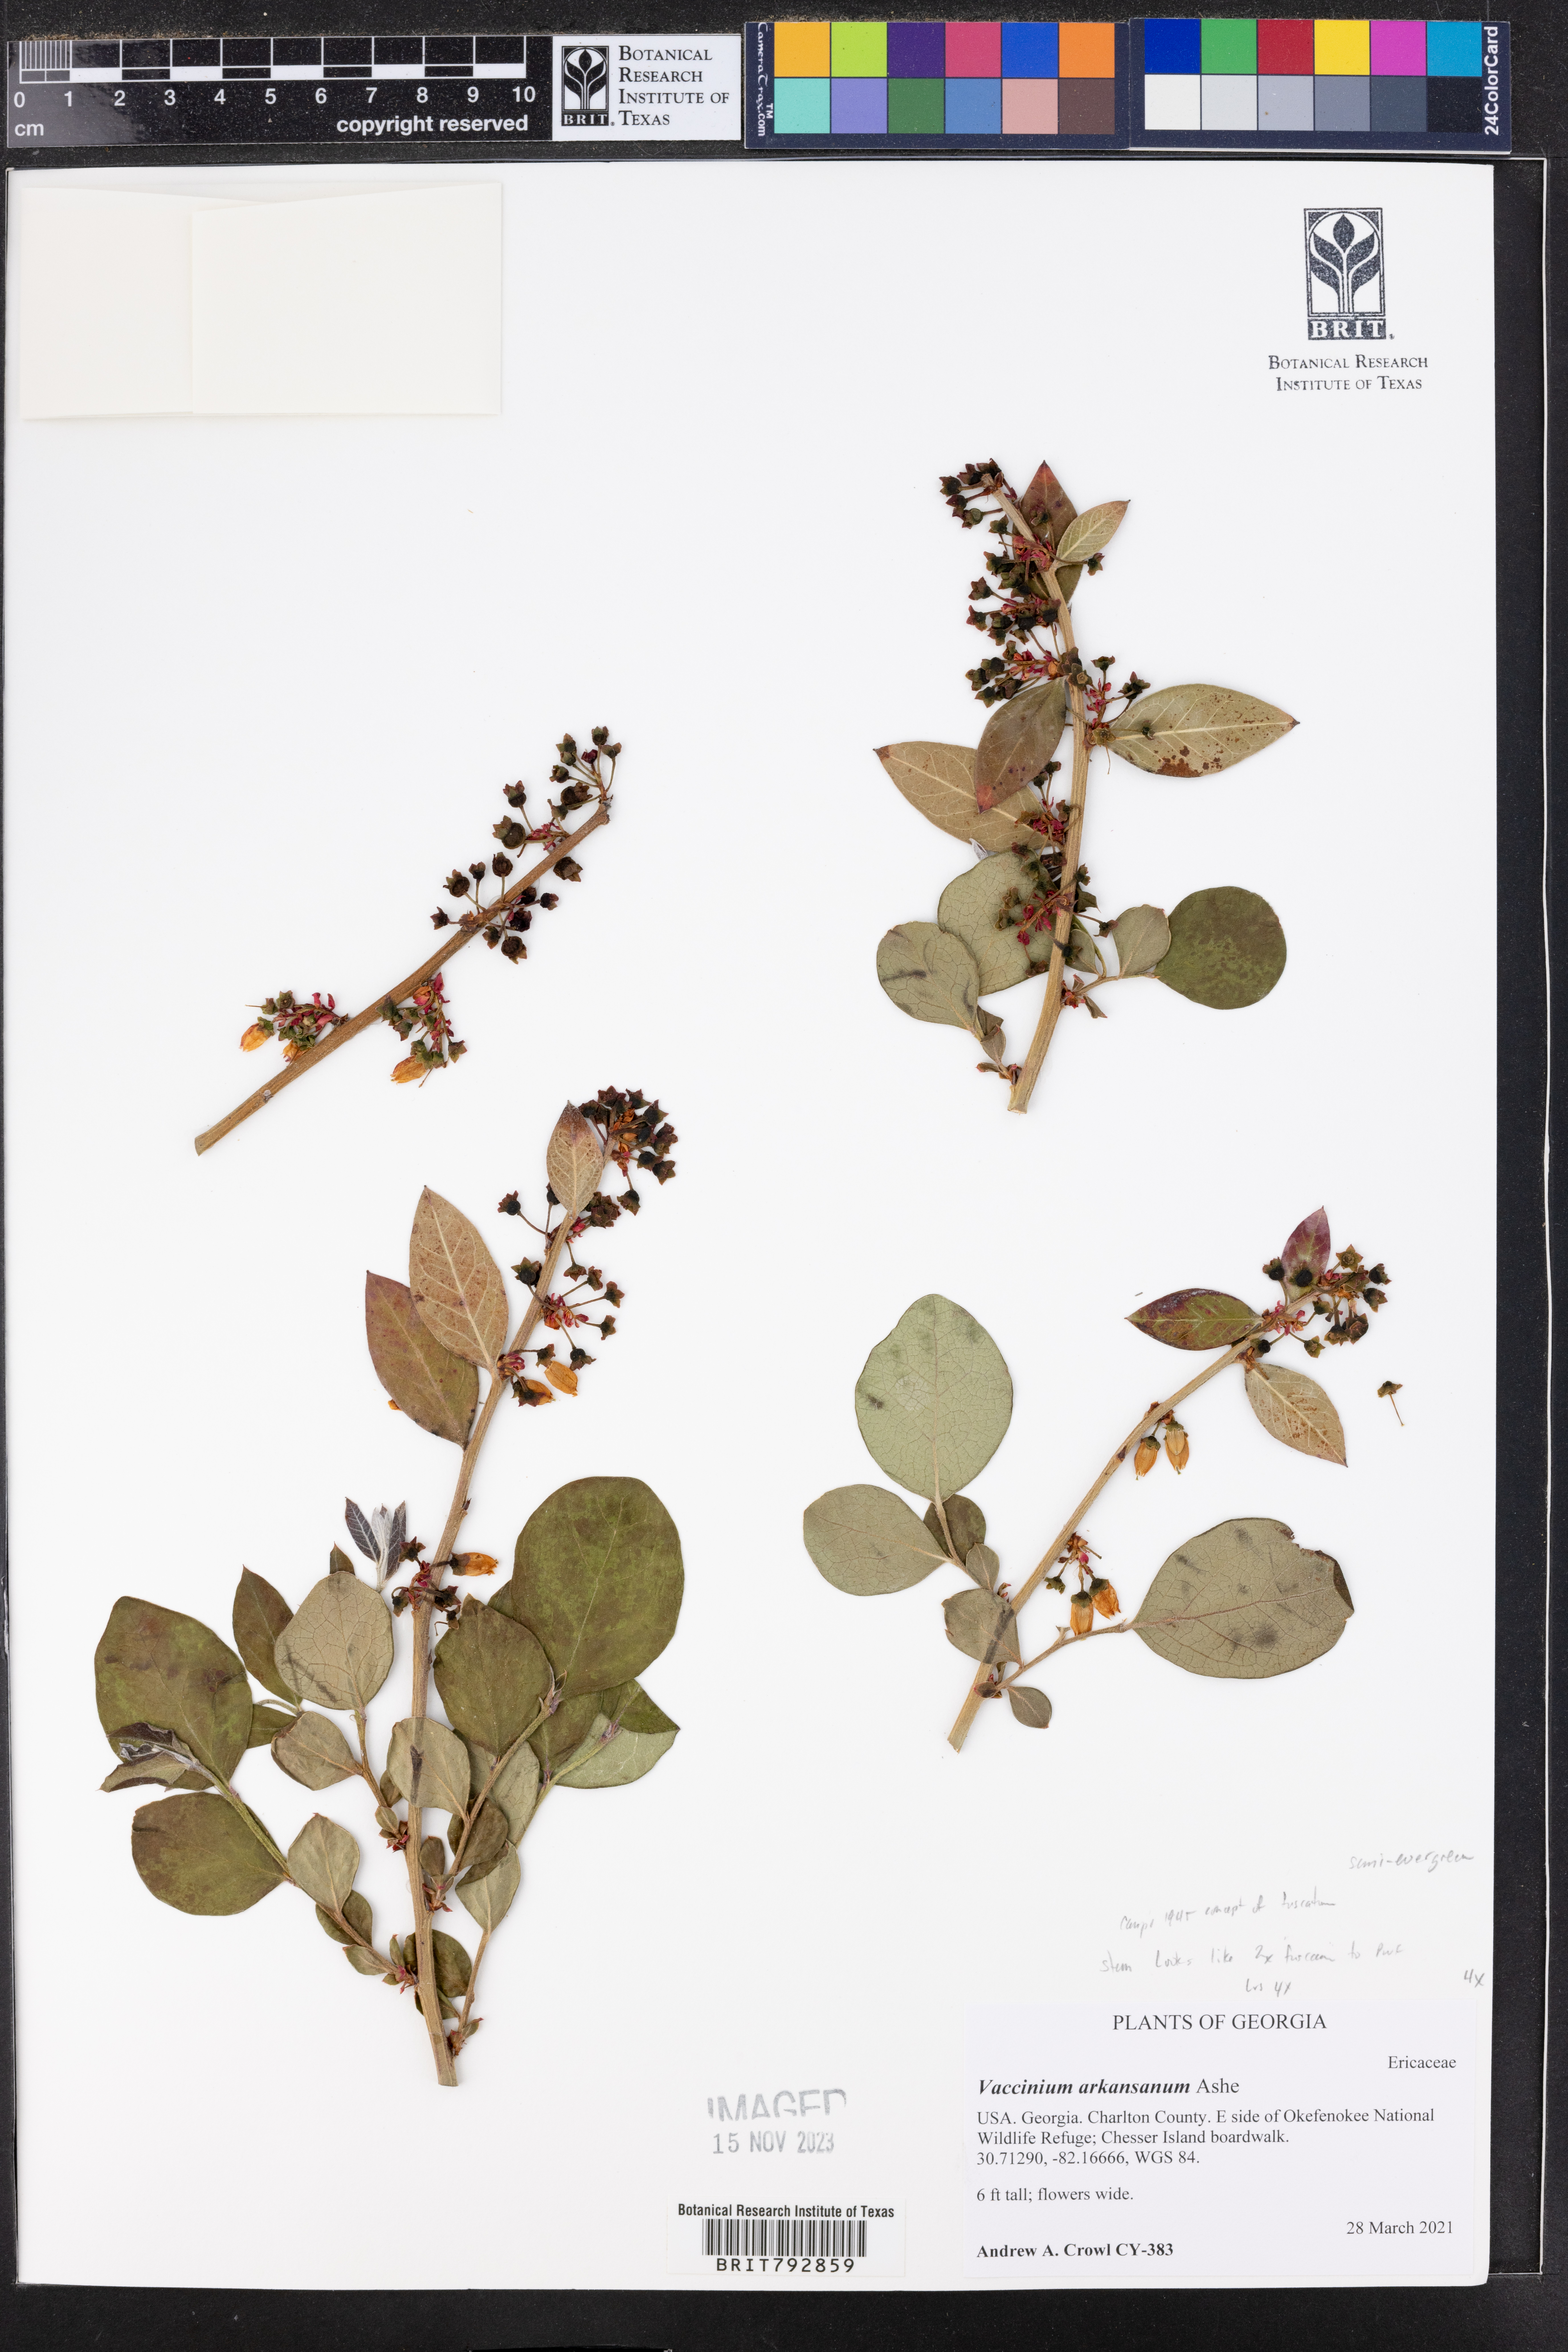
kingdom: Plantae
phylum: Tracheophyta
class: Magnoliopsida
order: Ericales
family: Ericaceae
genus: Vaccinium
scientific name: Vaccinium corymbosum
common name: Blueberry
